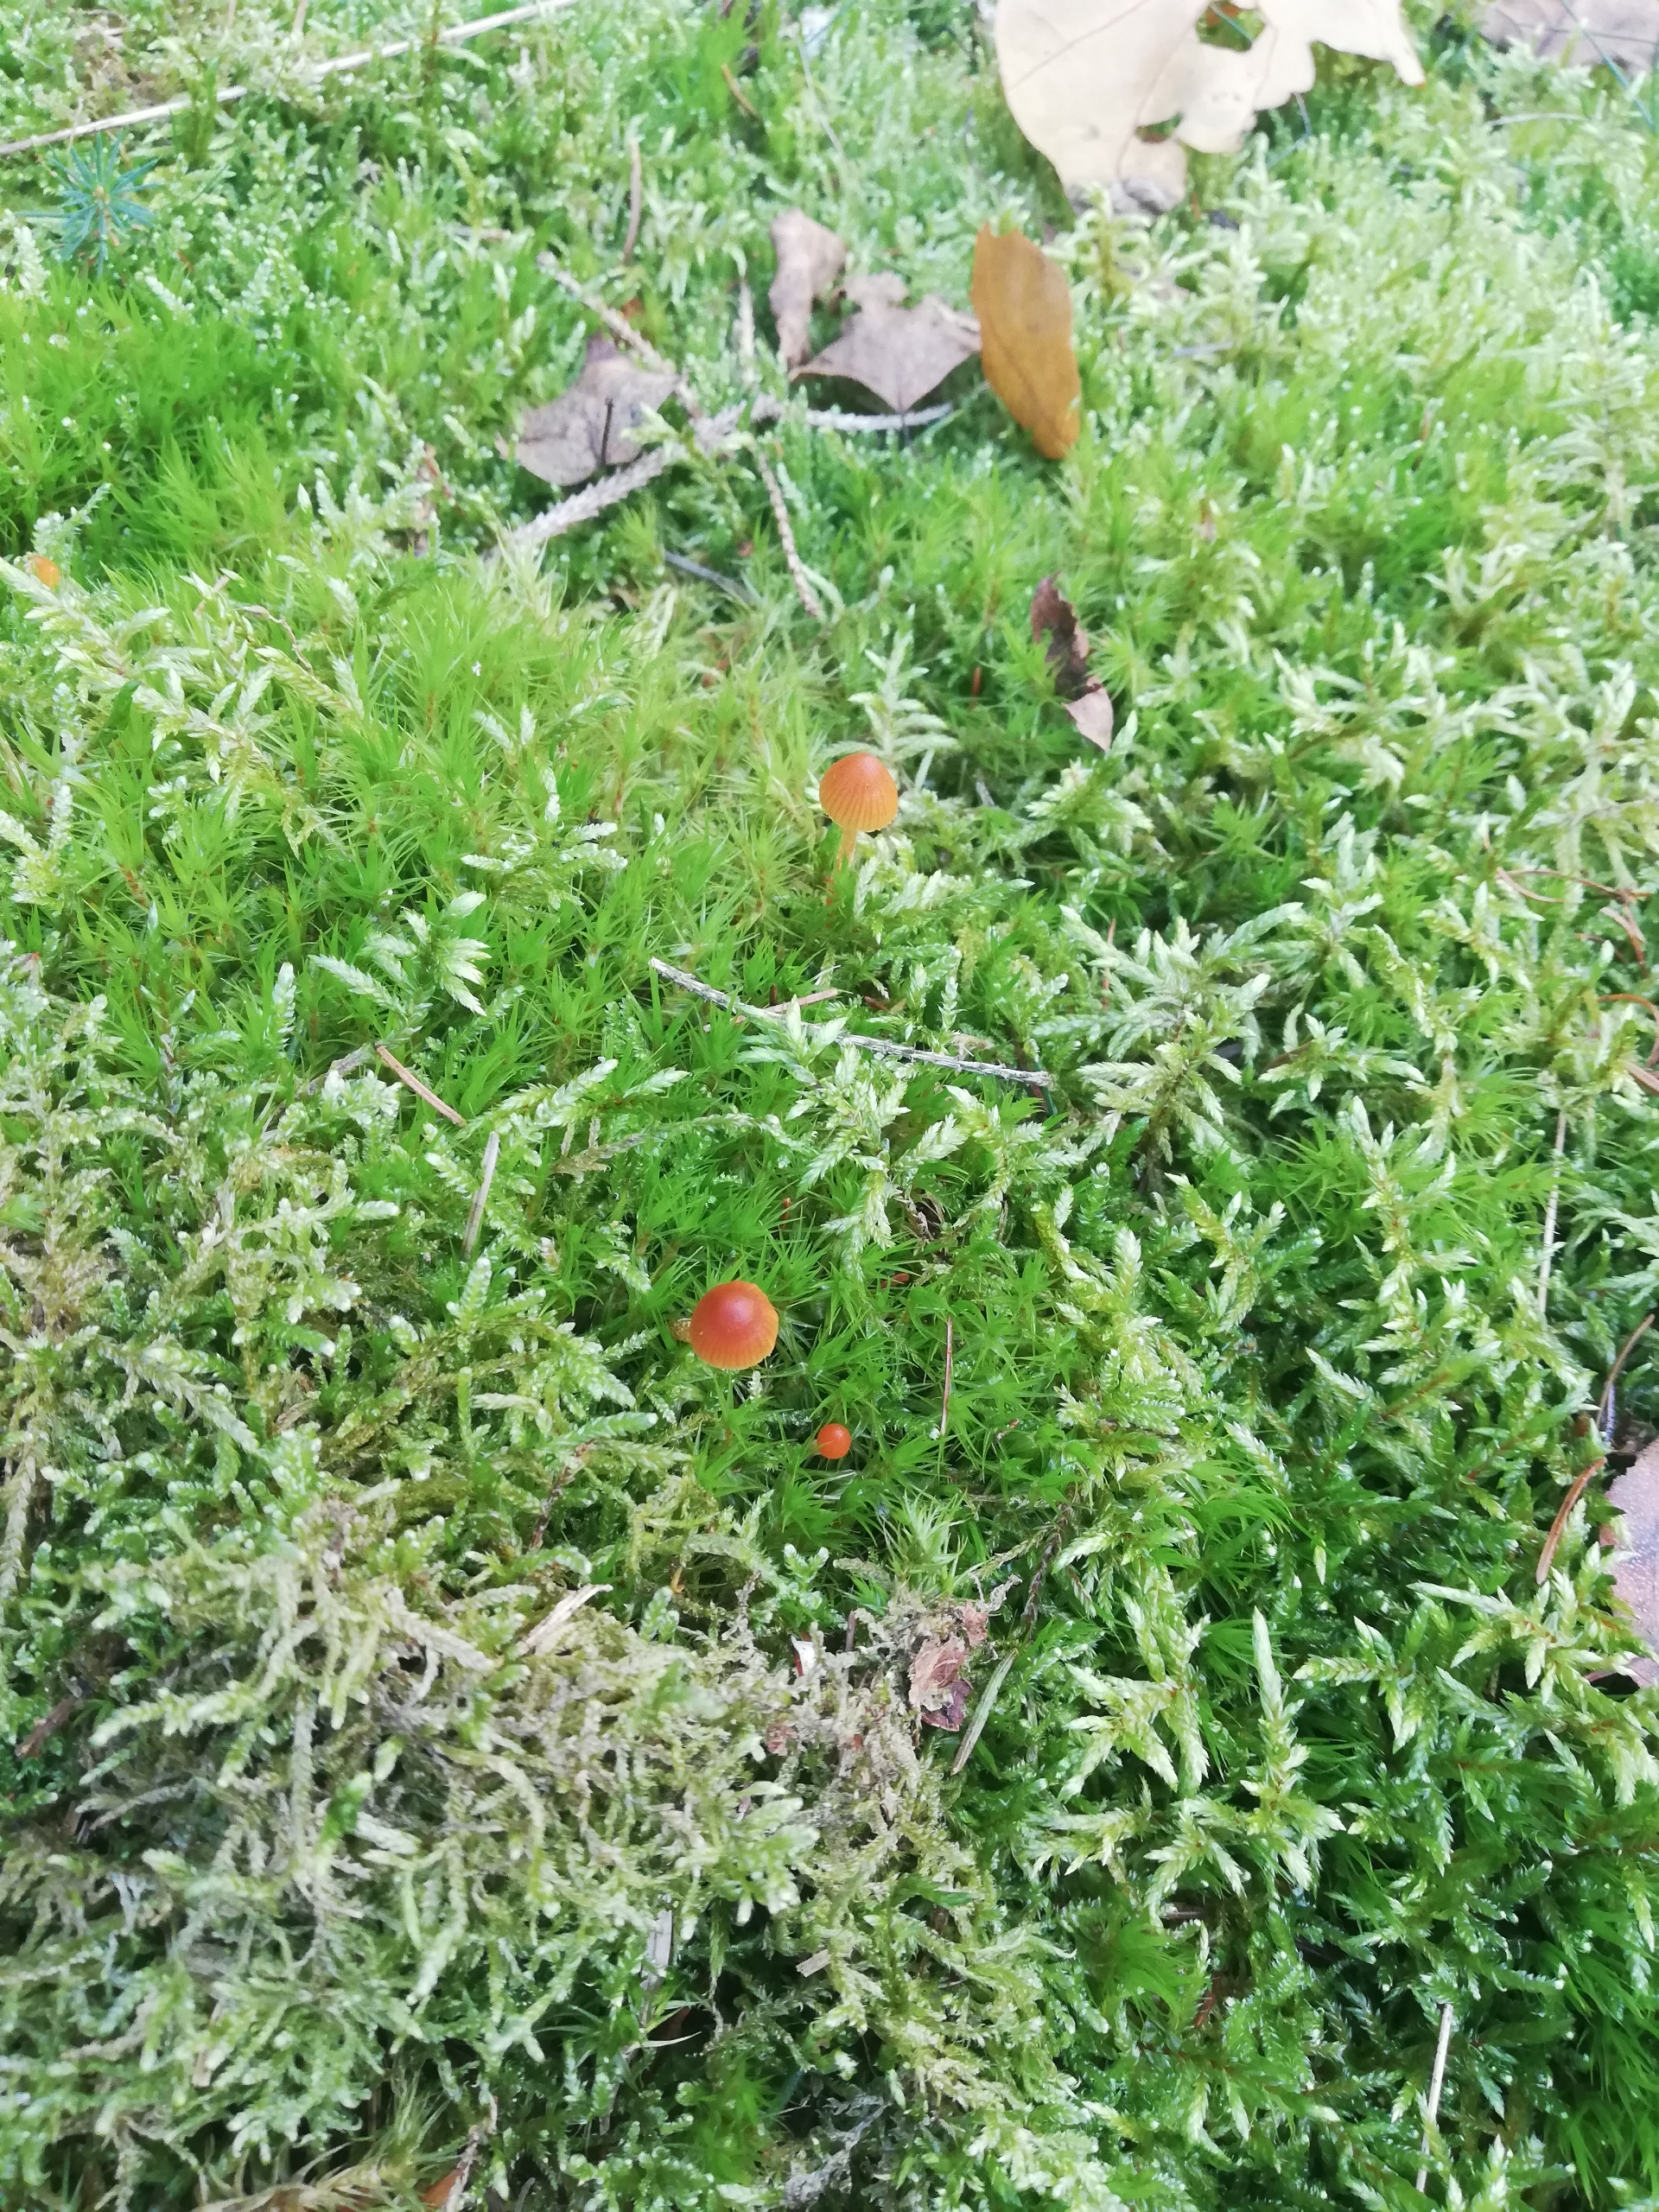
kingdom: Fungi
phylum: Basidiomycota
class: Agaricomycetes
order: Agaricales
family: Mycenaceae
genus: Atheniella
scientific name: Atheniella adonis
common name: Rønnerød huesvamp
